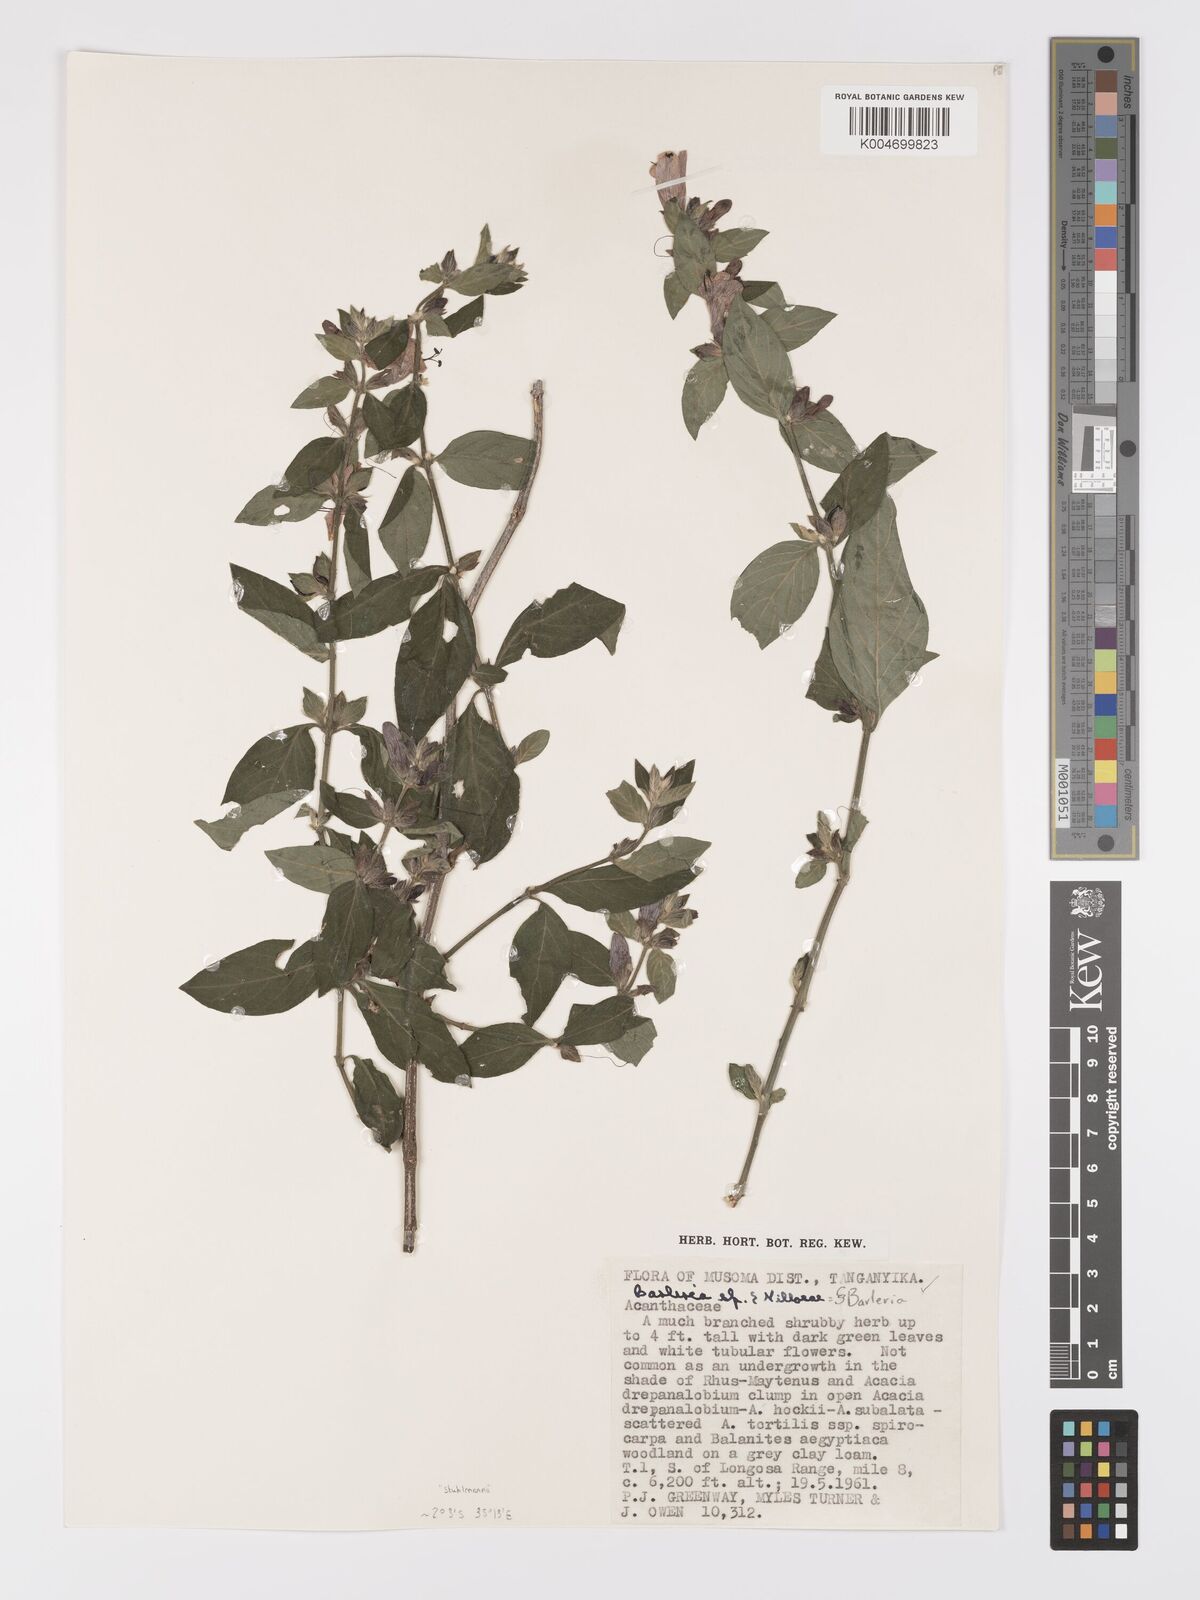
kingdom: Plantae
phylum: Tracheophyta
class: Magnoliopsida
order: Lamiales
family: Acanthaceae
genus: Barleria
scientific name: Barleria ventricosa
